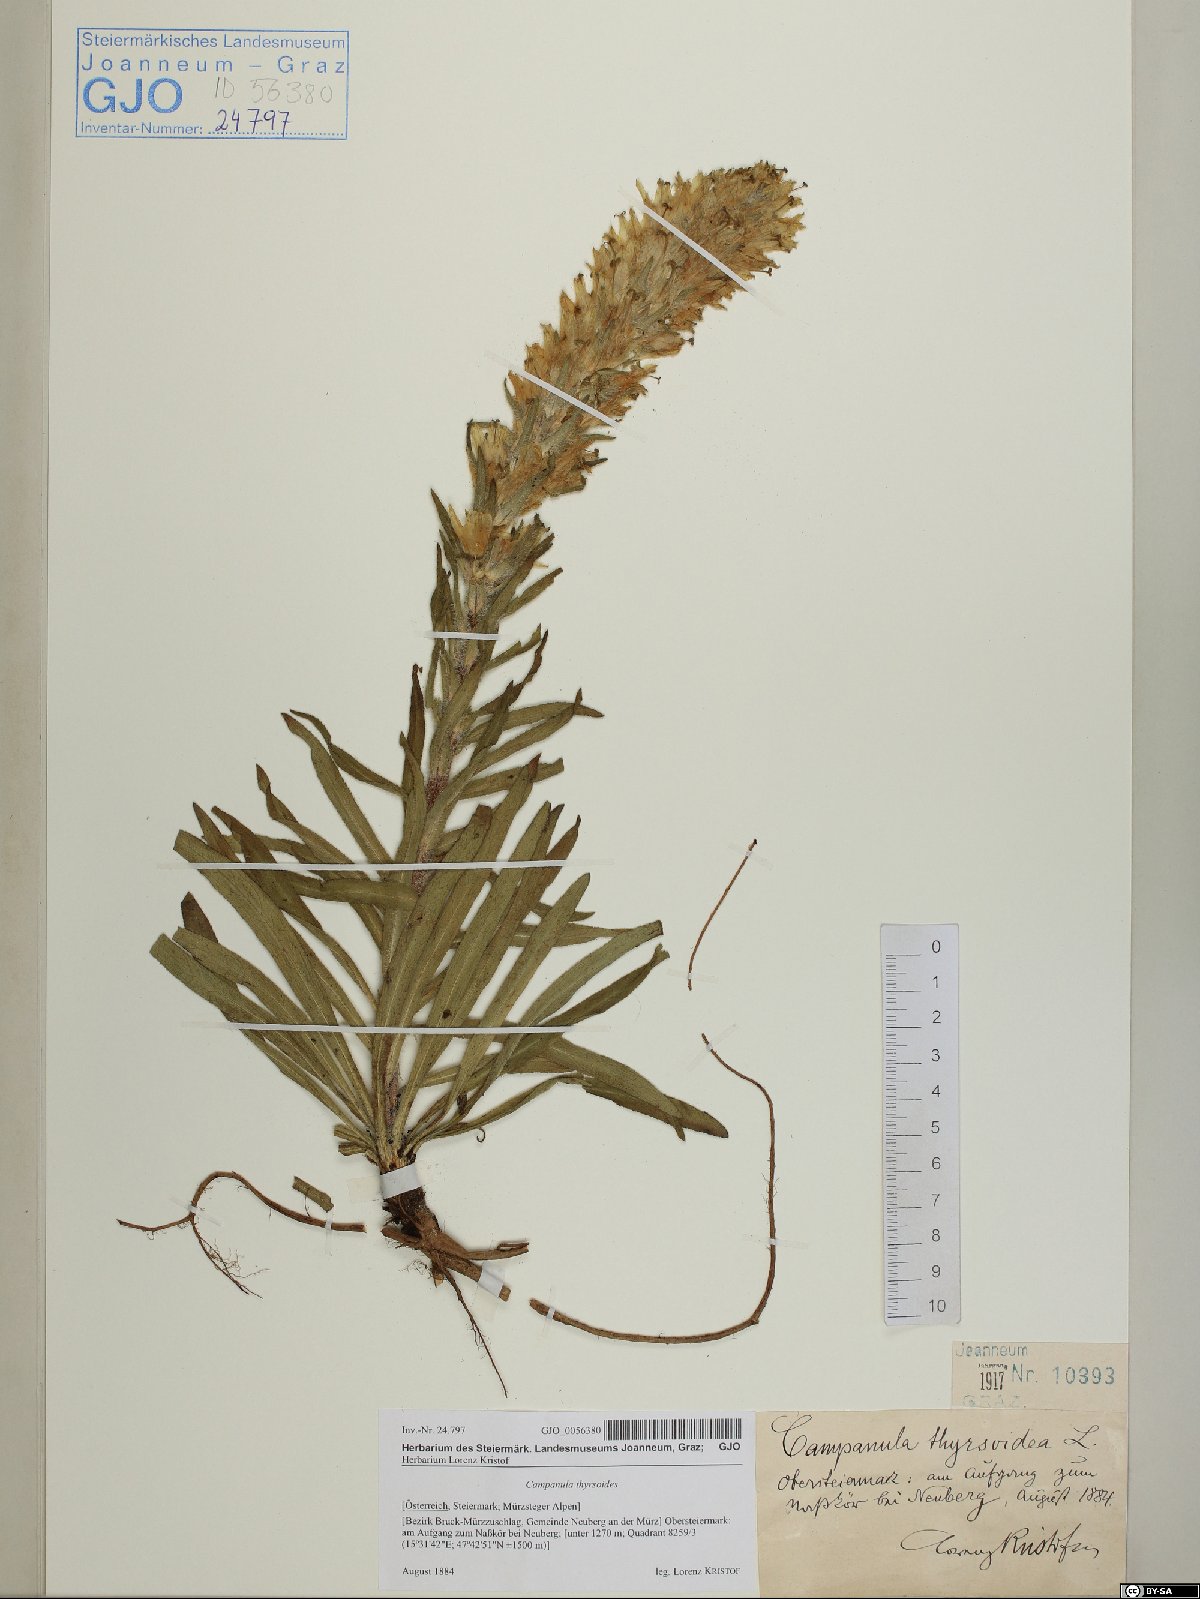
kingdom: Plantae
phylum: Tracheophyta
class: Magnoliopsida
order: Asterales
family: Campanulaceae
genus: Campanula
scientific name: Campanula thyrsoides
